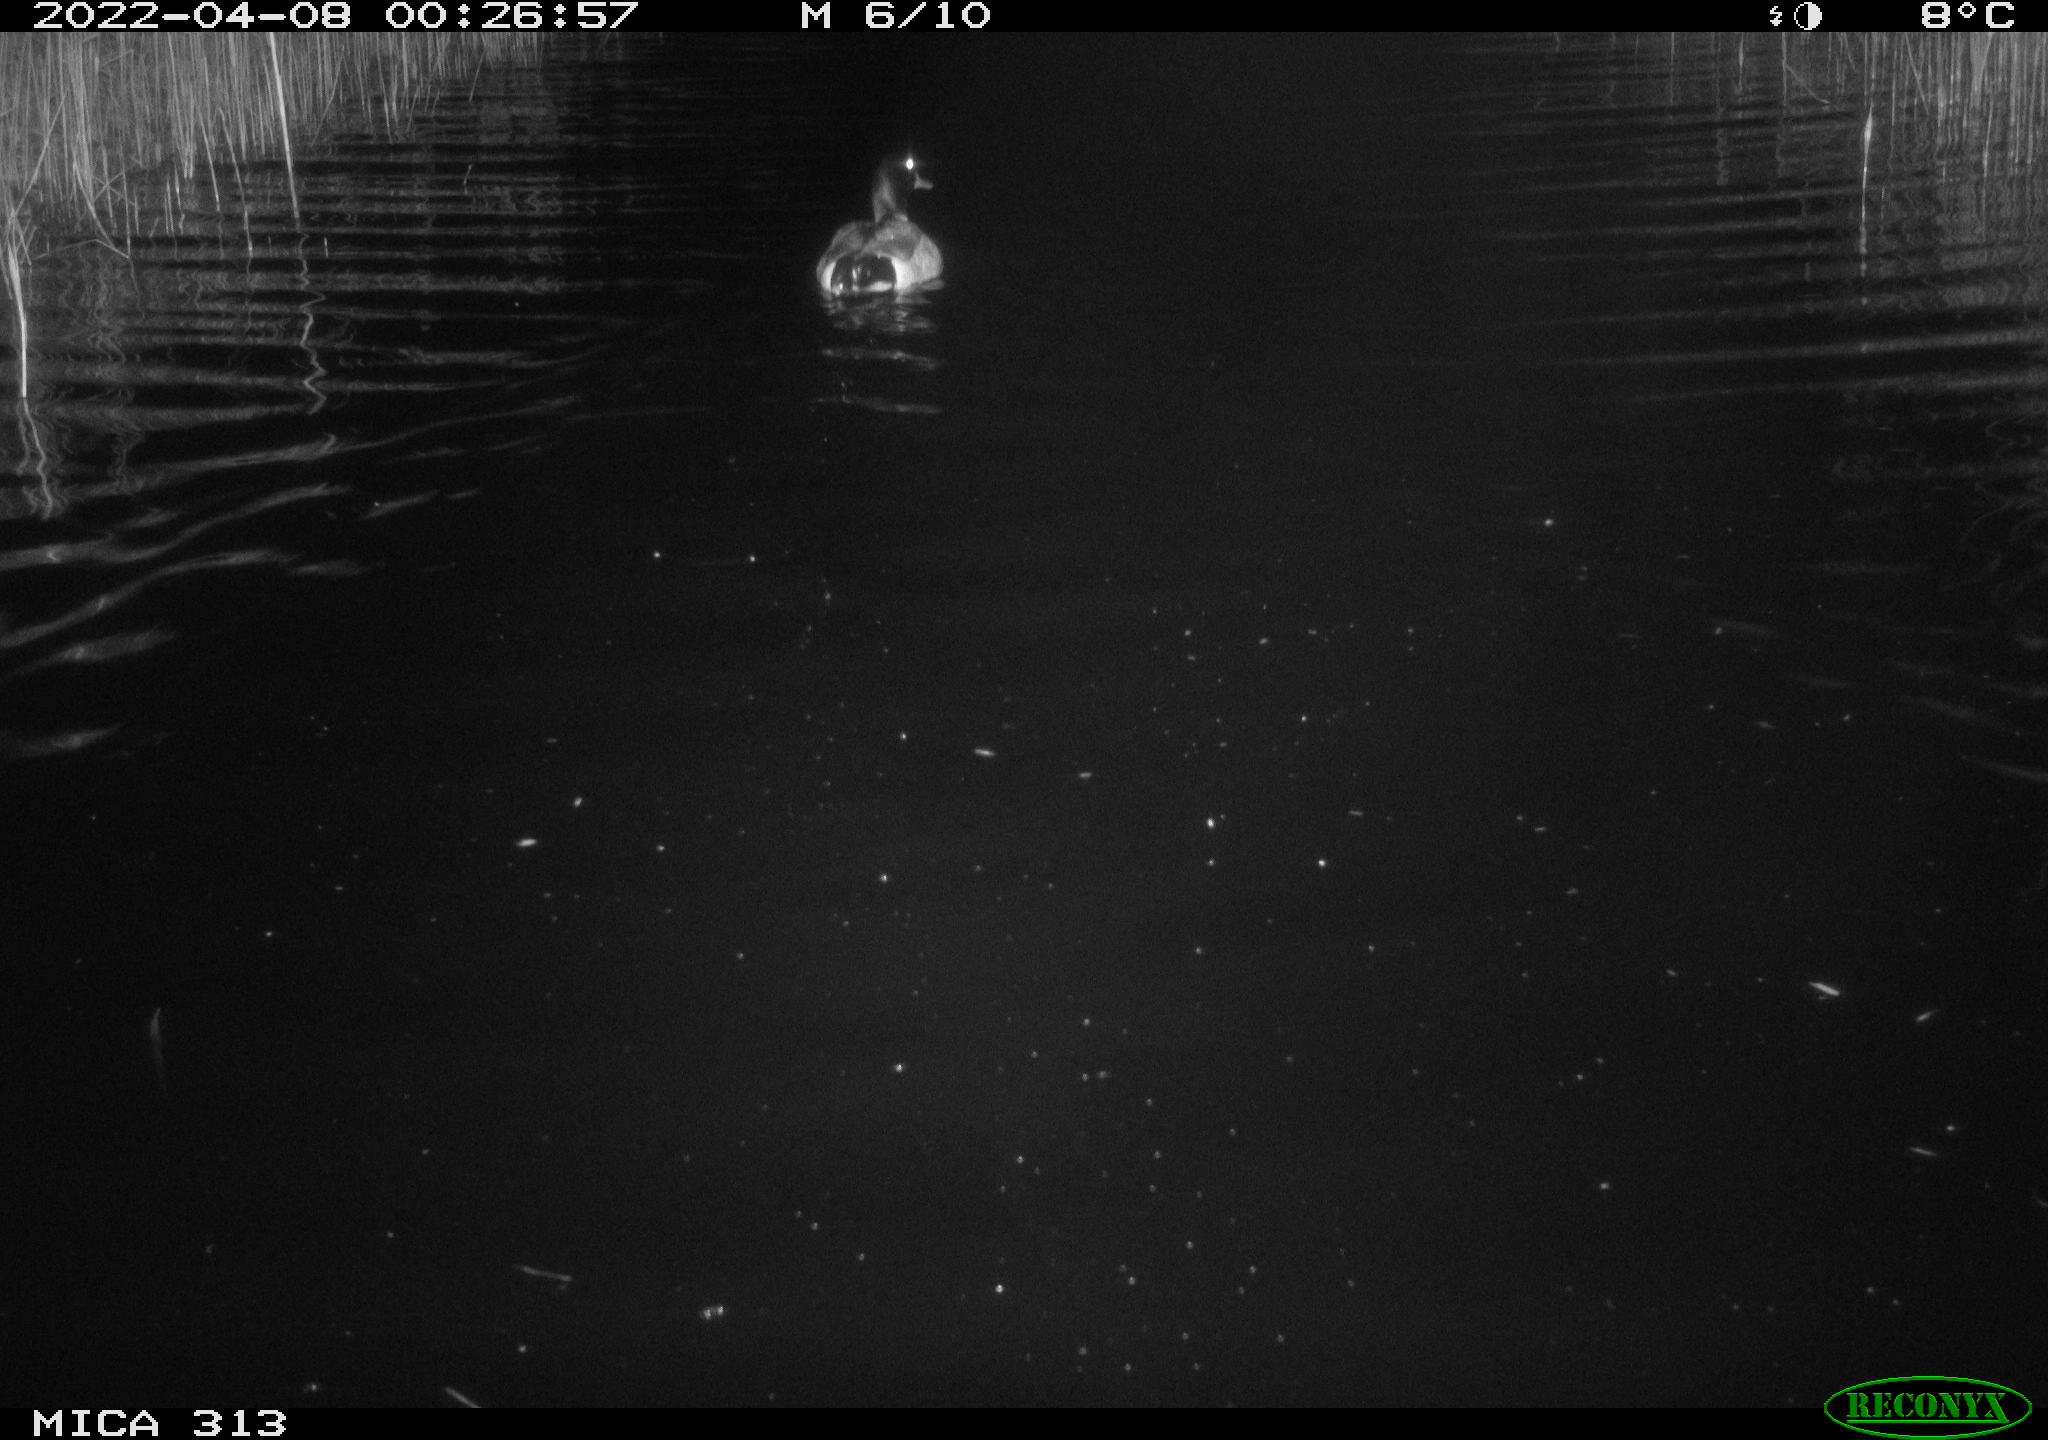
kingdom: Animalia
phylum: Chordata
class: Aves
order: Anseriformes
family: Anatidae
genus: Anas
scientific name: Anas platyrhynchos
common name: Mallard
